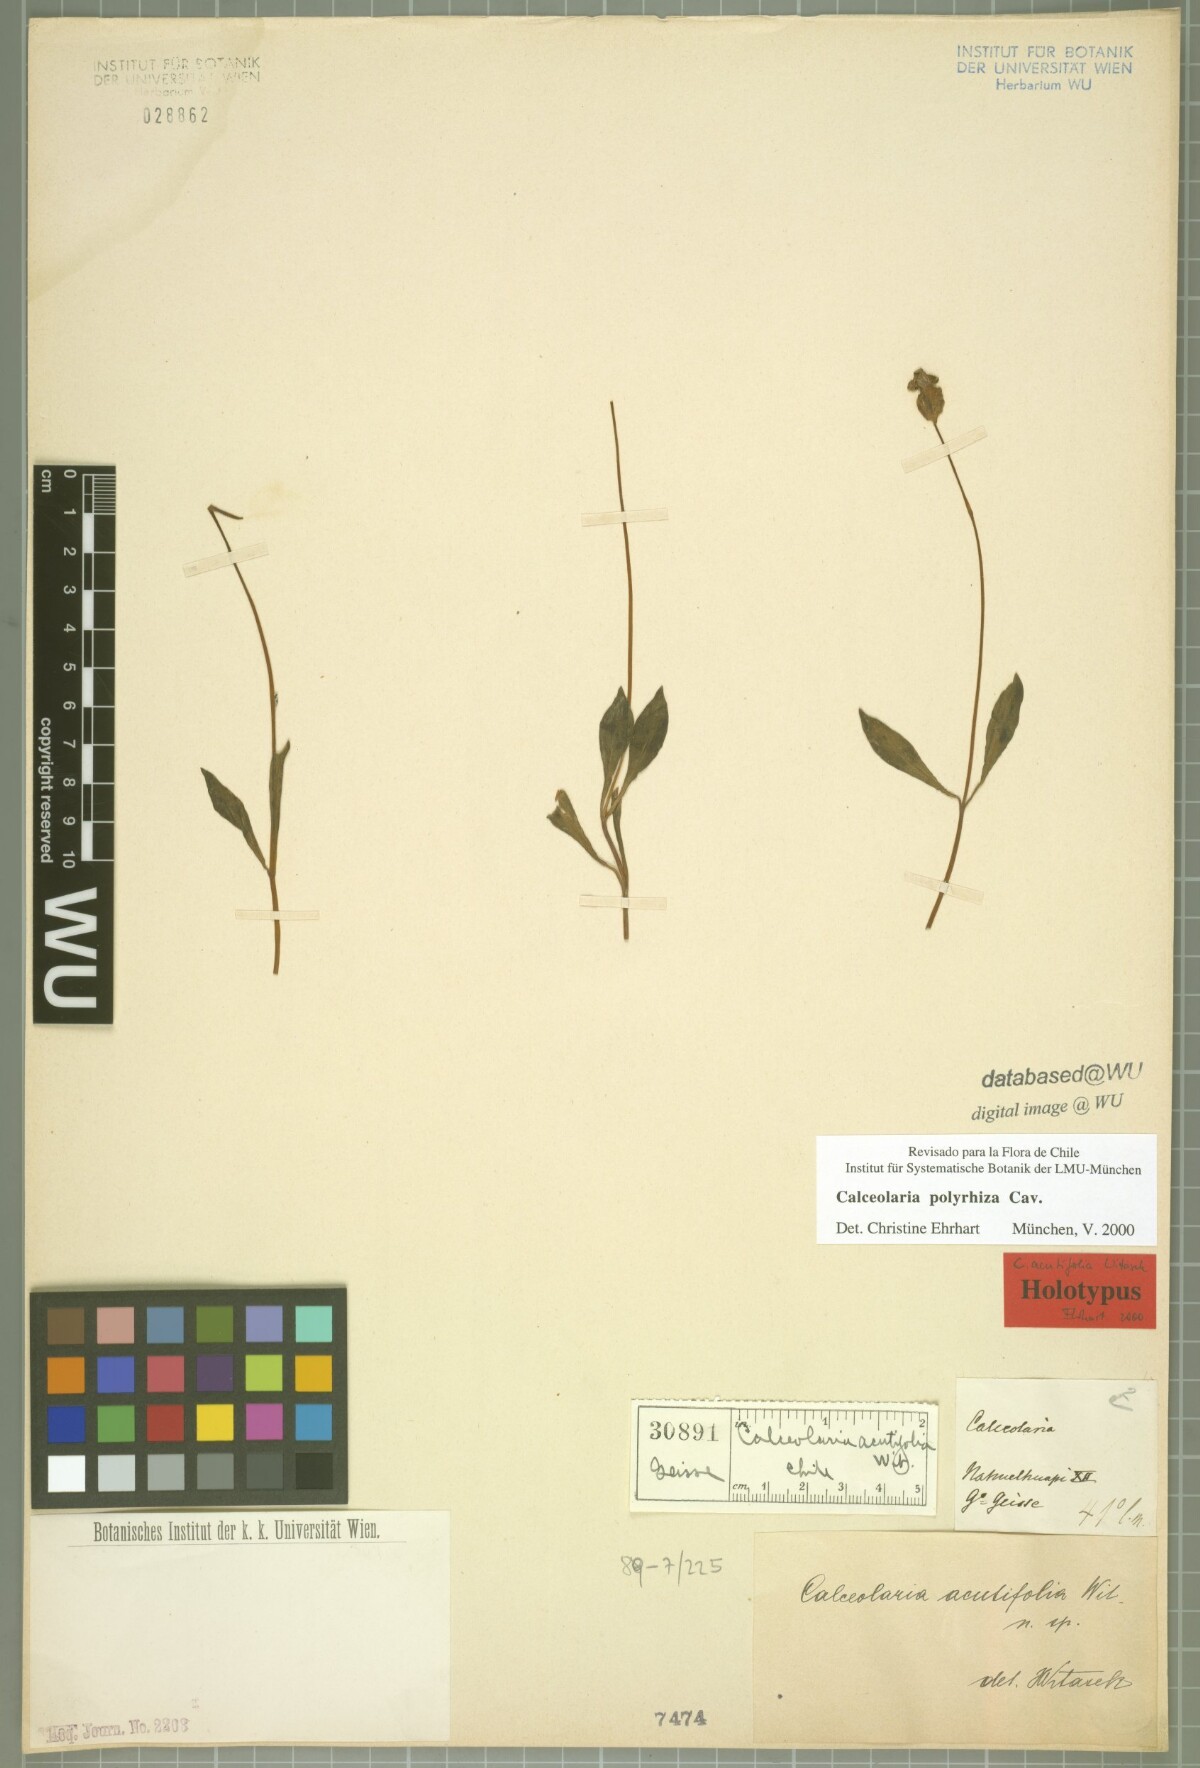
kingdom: Plantae
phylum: Tracheophyta
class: Magnoliopsida
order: Lamiales
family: Calceolariaceae
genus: Calceolaria
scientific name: Calceolaria polyrhiza
